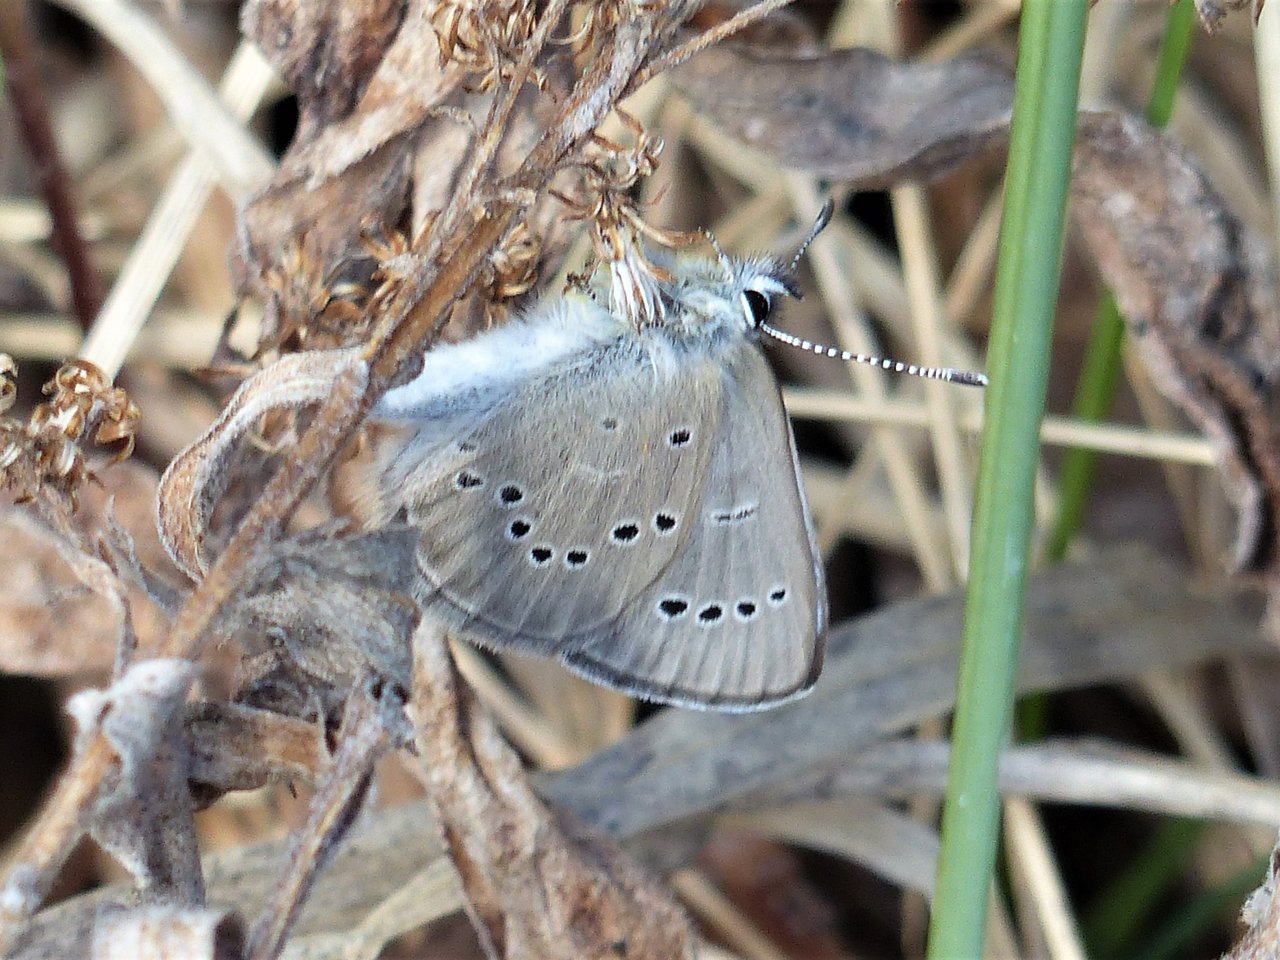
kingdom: Animalia
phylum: Arthropoda
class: Insecta
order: Lepidoptera
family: Lycaenidae
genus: Glaucopsyche
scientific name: Glaucopsyche lygdamus
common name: Silvery Blue
